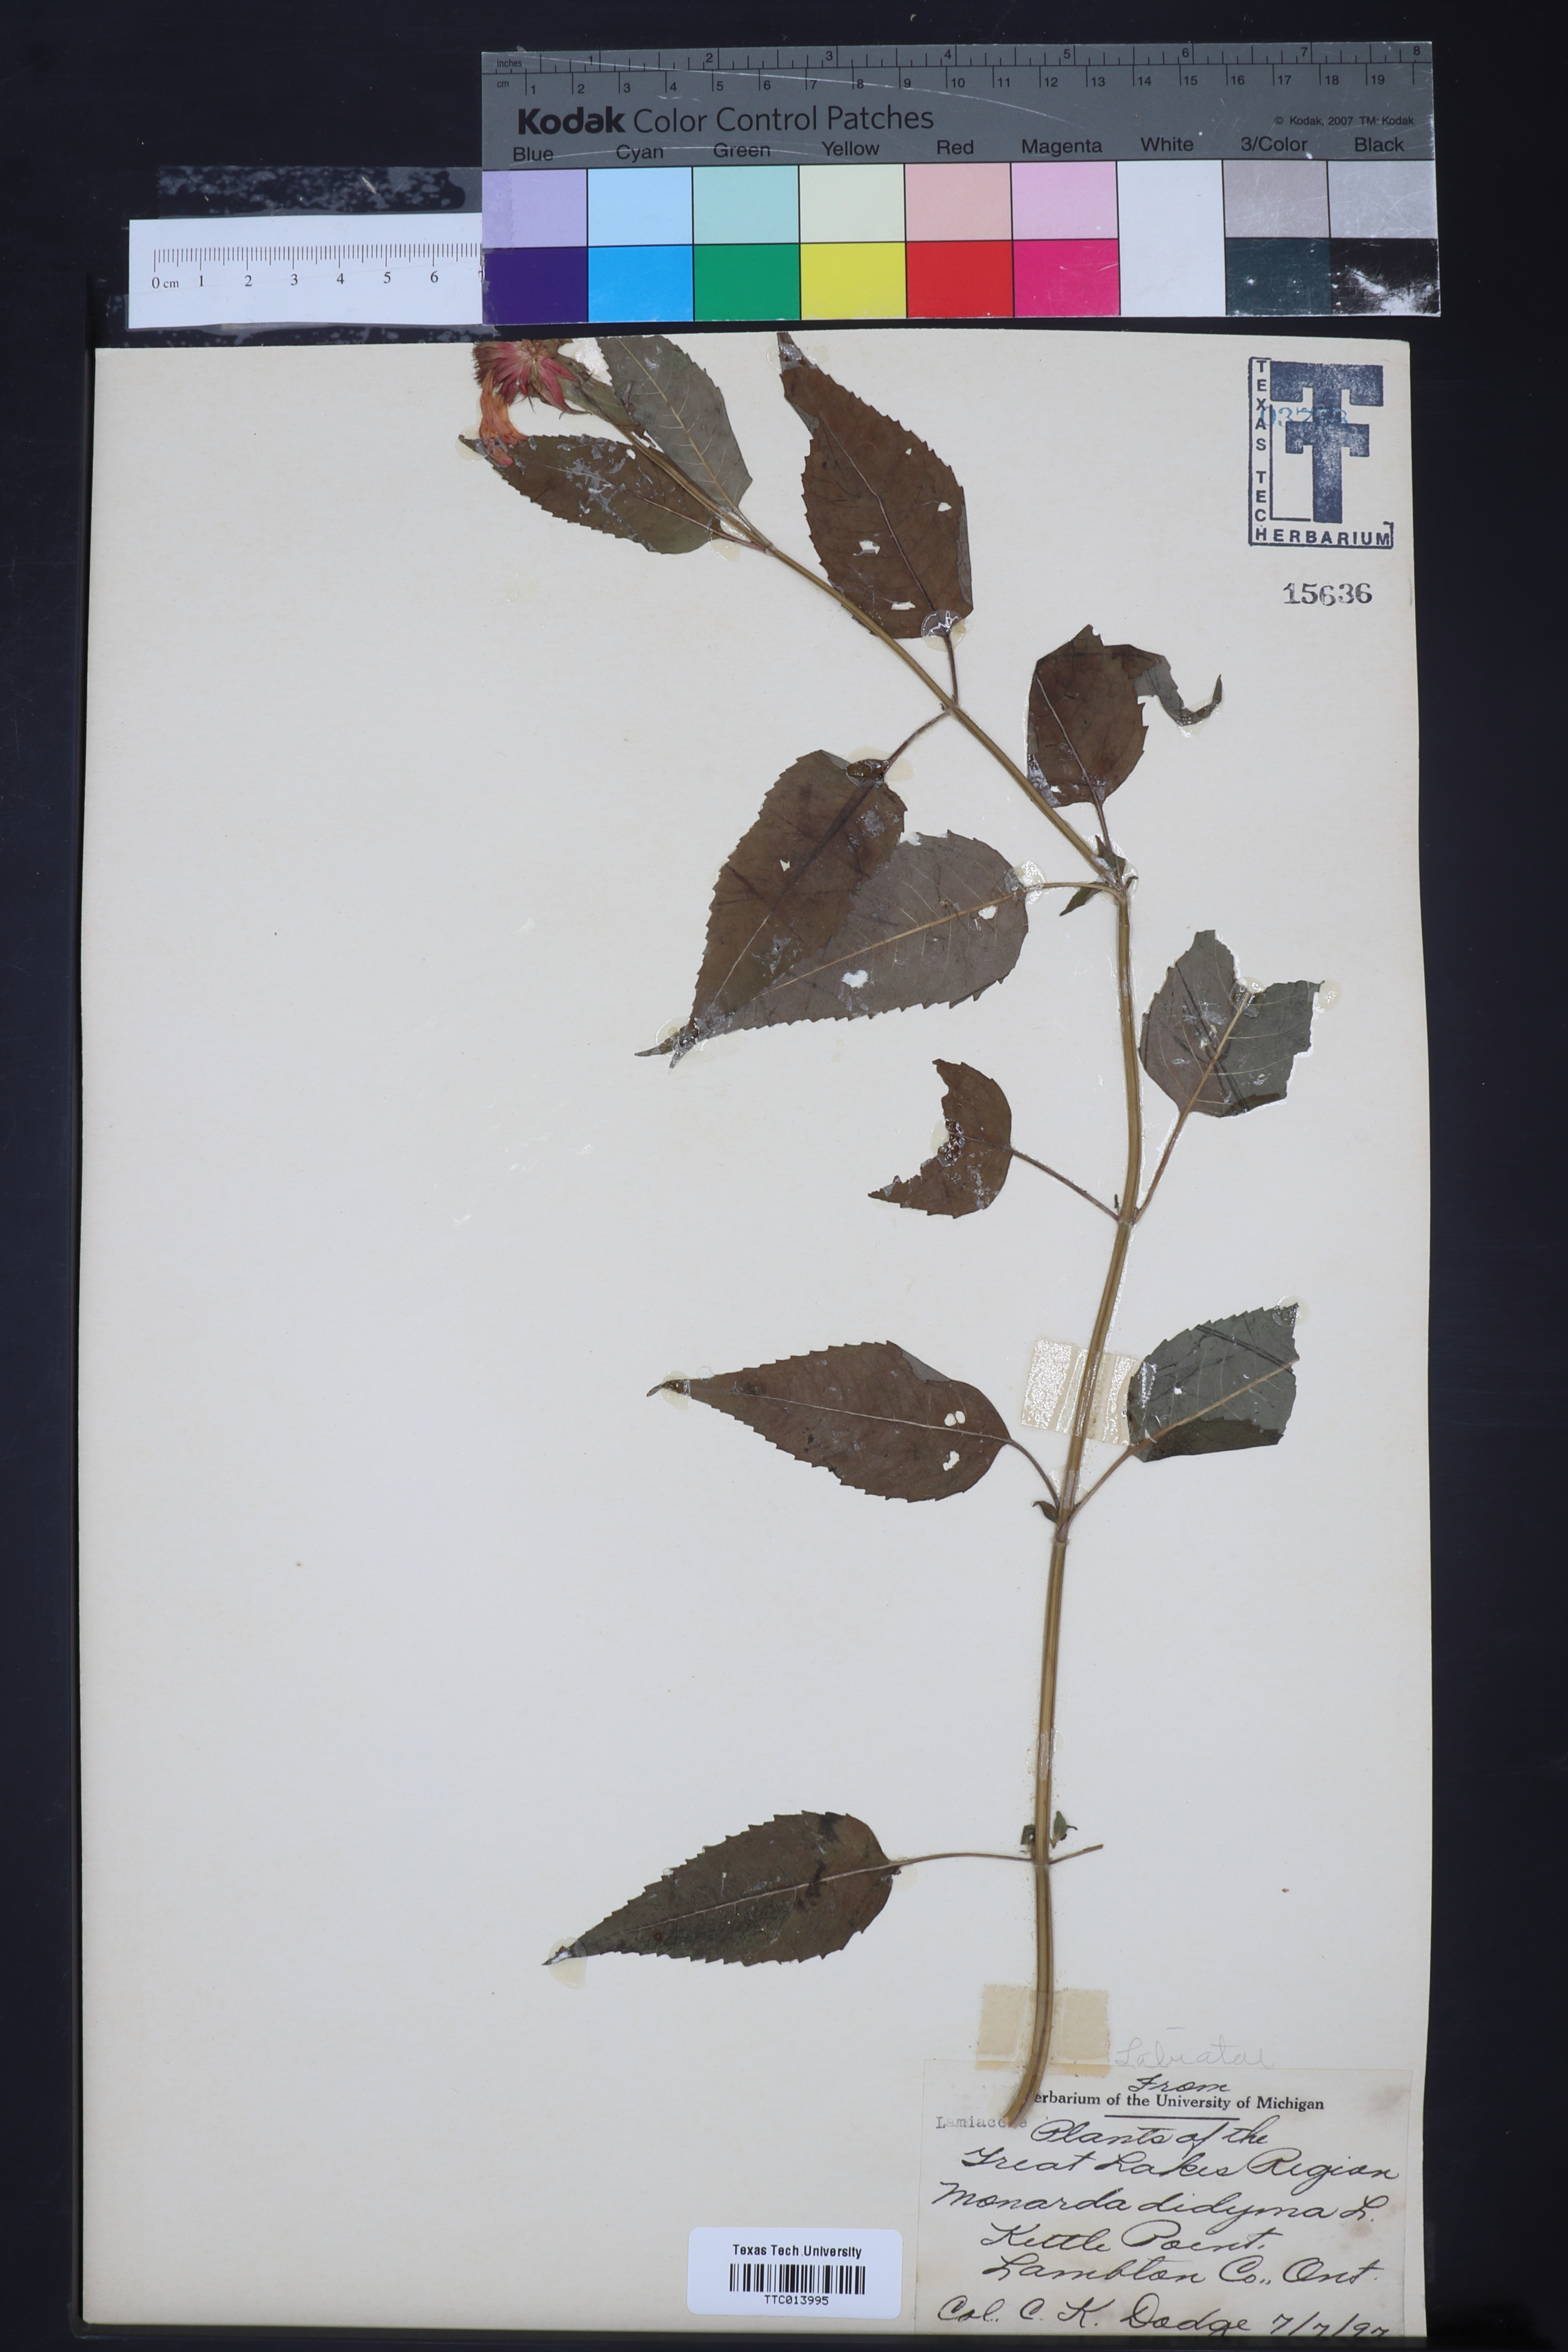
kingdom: Plantae
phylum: Tracheophyta
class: Magnoliopsida
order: Lamiales
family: Lamiaceae
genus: Monarda
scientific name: Monarda didyma
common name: Beebalm
